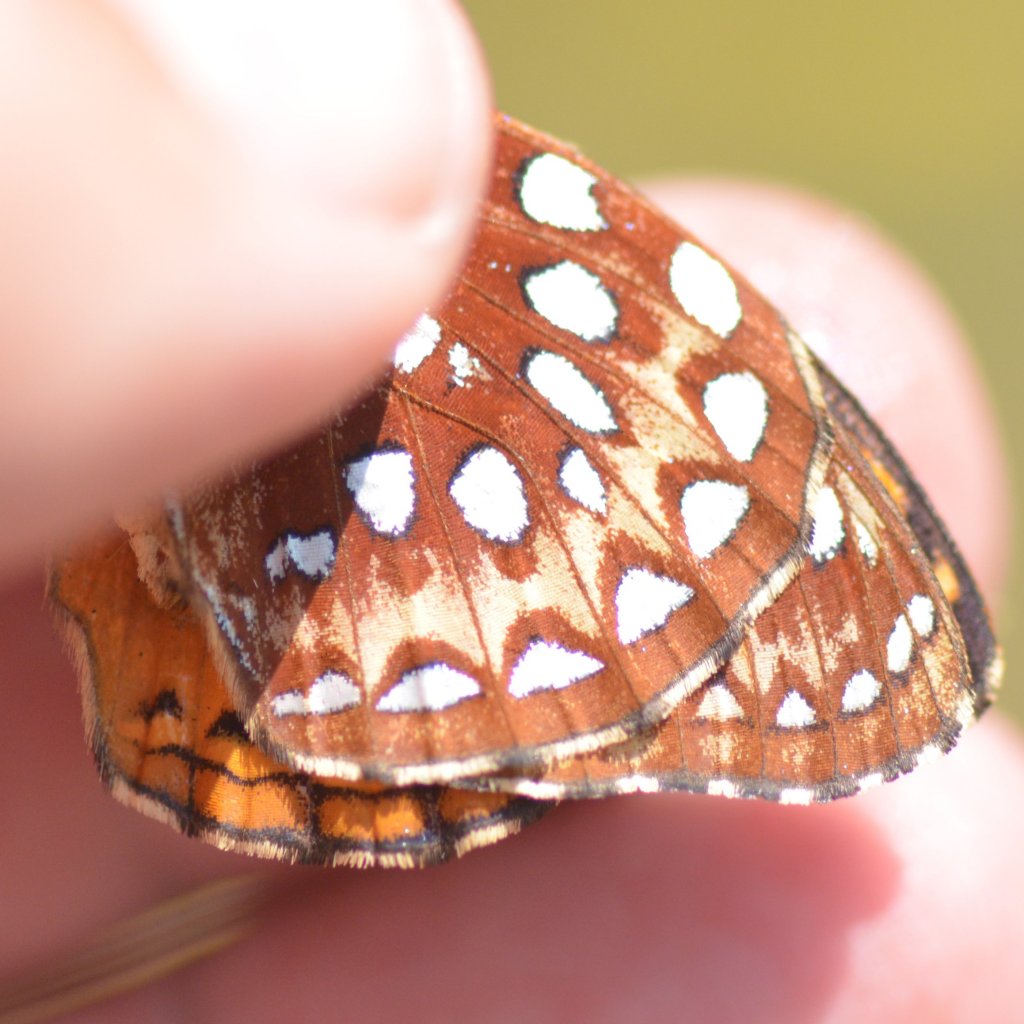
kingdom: Animalia
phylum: Arthropoda
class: Insecta
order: Lepidoptera
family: Nymphalidae
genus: Speyeria
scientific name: Speyeria aphrodite
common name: Aphrodite Fritillary
